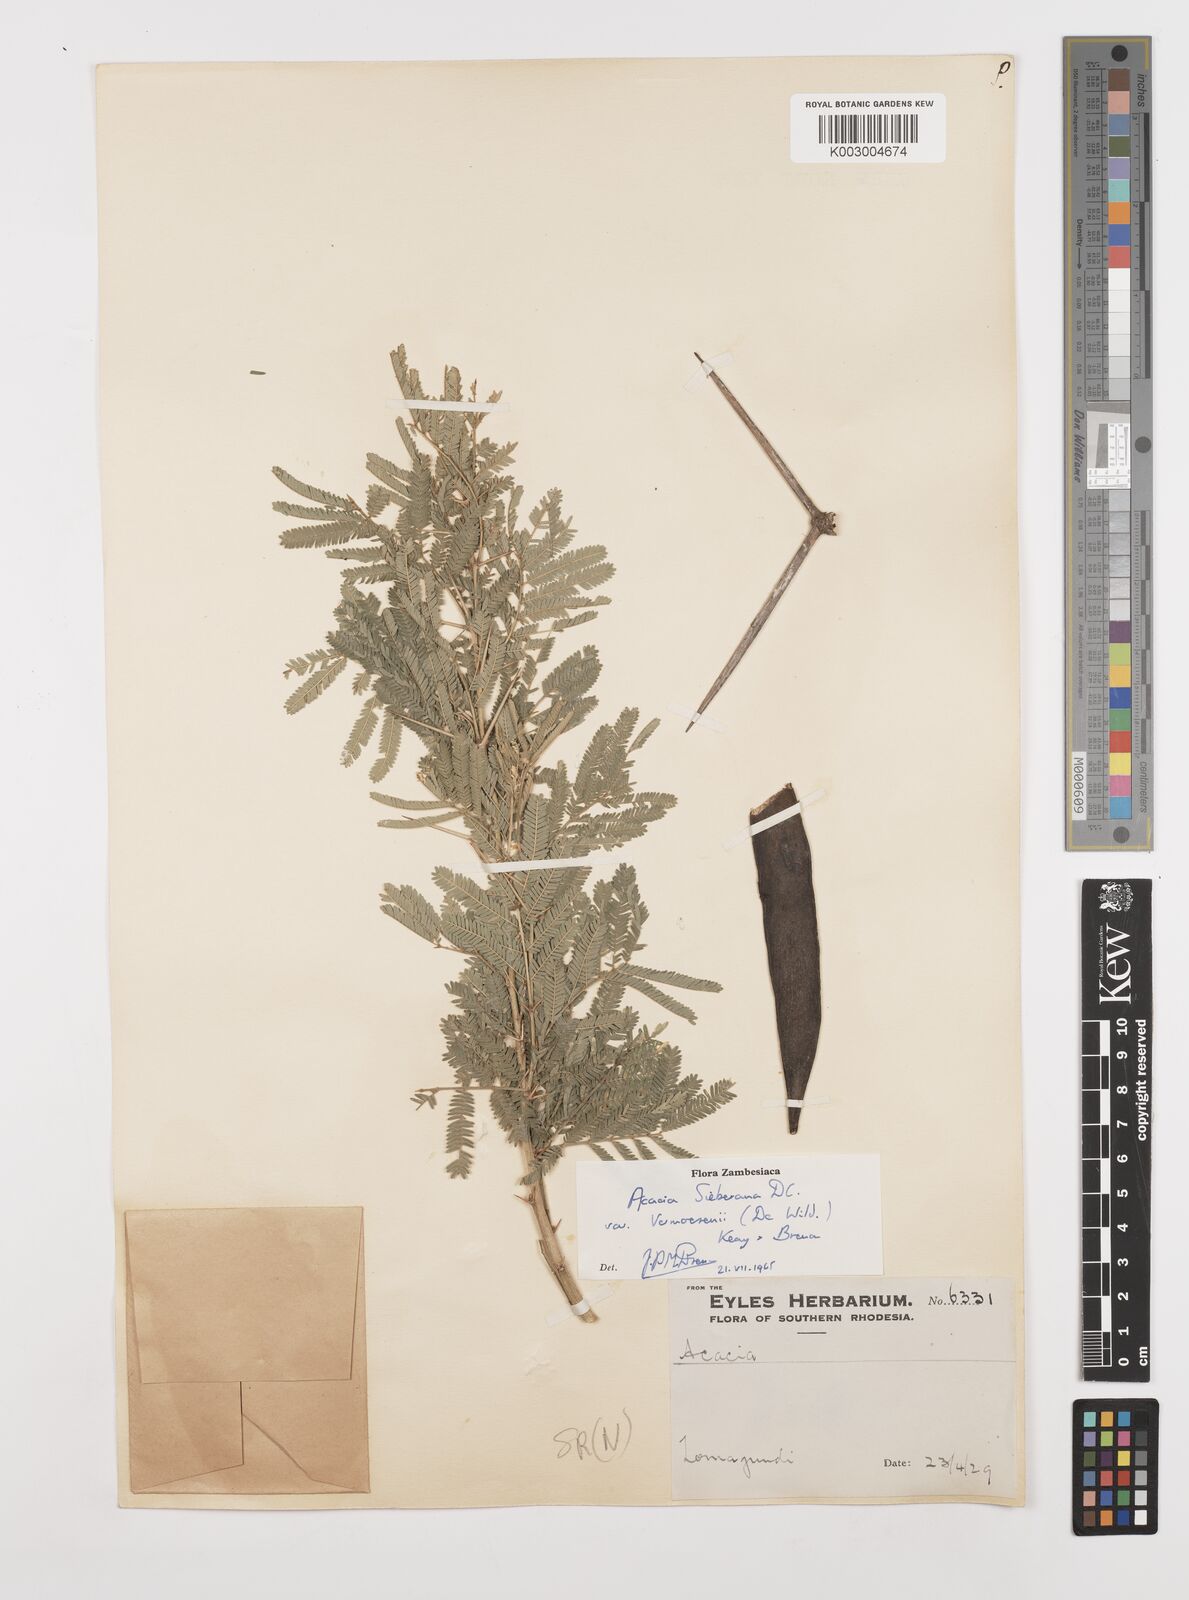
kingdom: Plantae
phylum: Tracheophyta
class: Magnoliopsida
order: Fabales
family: Fabaceae
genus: Vachellia
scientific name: Vachellia sieberiana
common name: Flat-topped thorn
